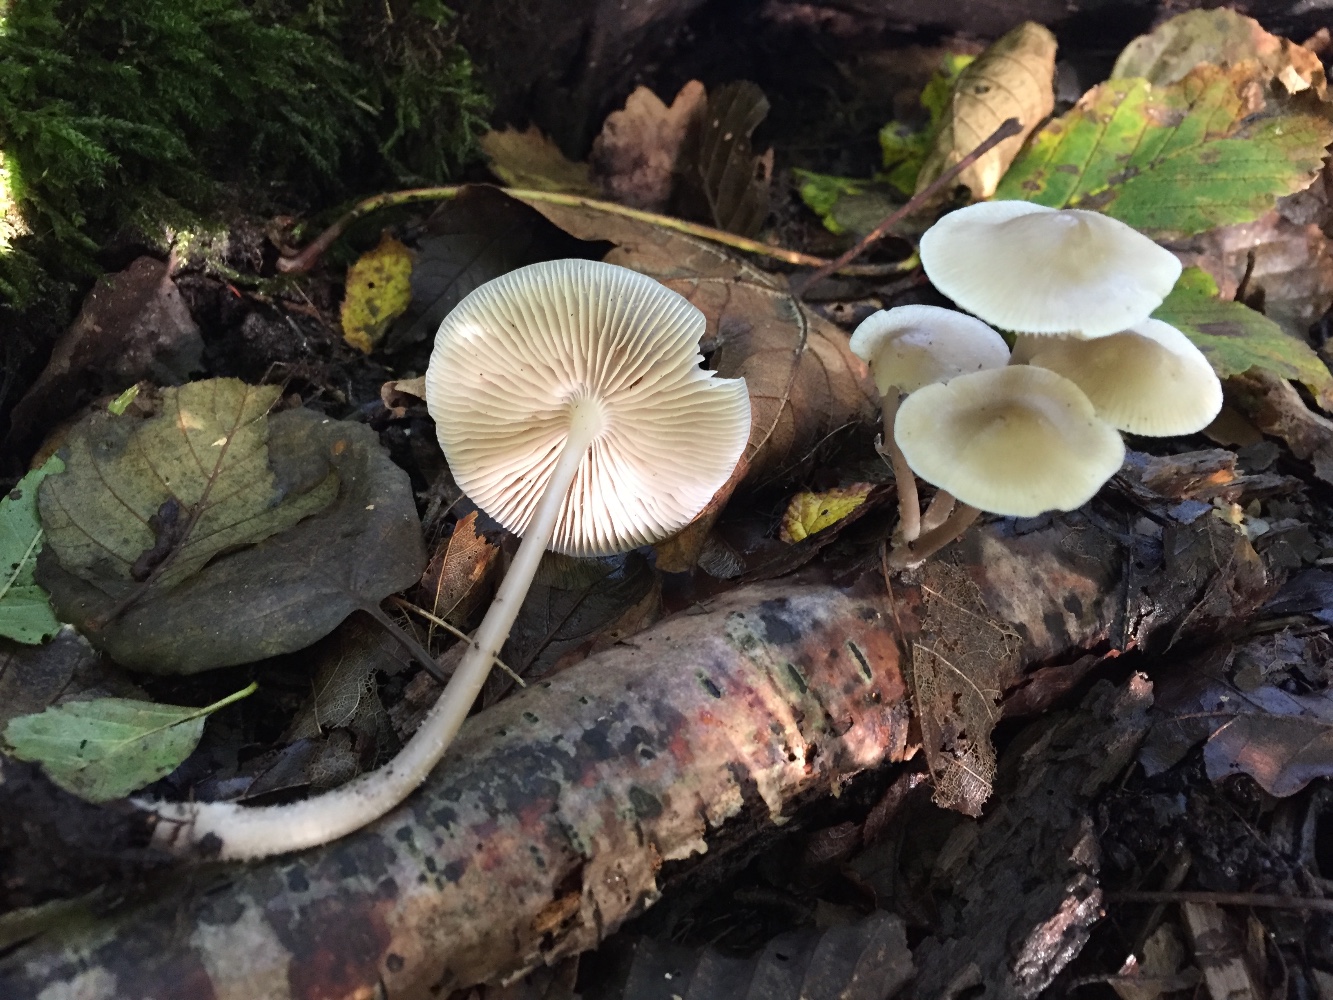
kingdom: Fungi
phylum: Basidiomycota
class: Agaricomycetes
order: Agaricales
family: Mycenaceae
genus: Mycena
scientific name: Mycena galericulata
